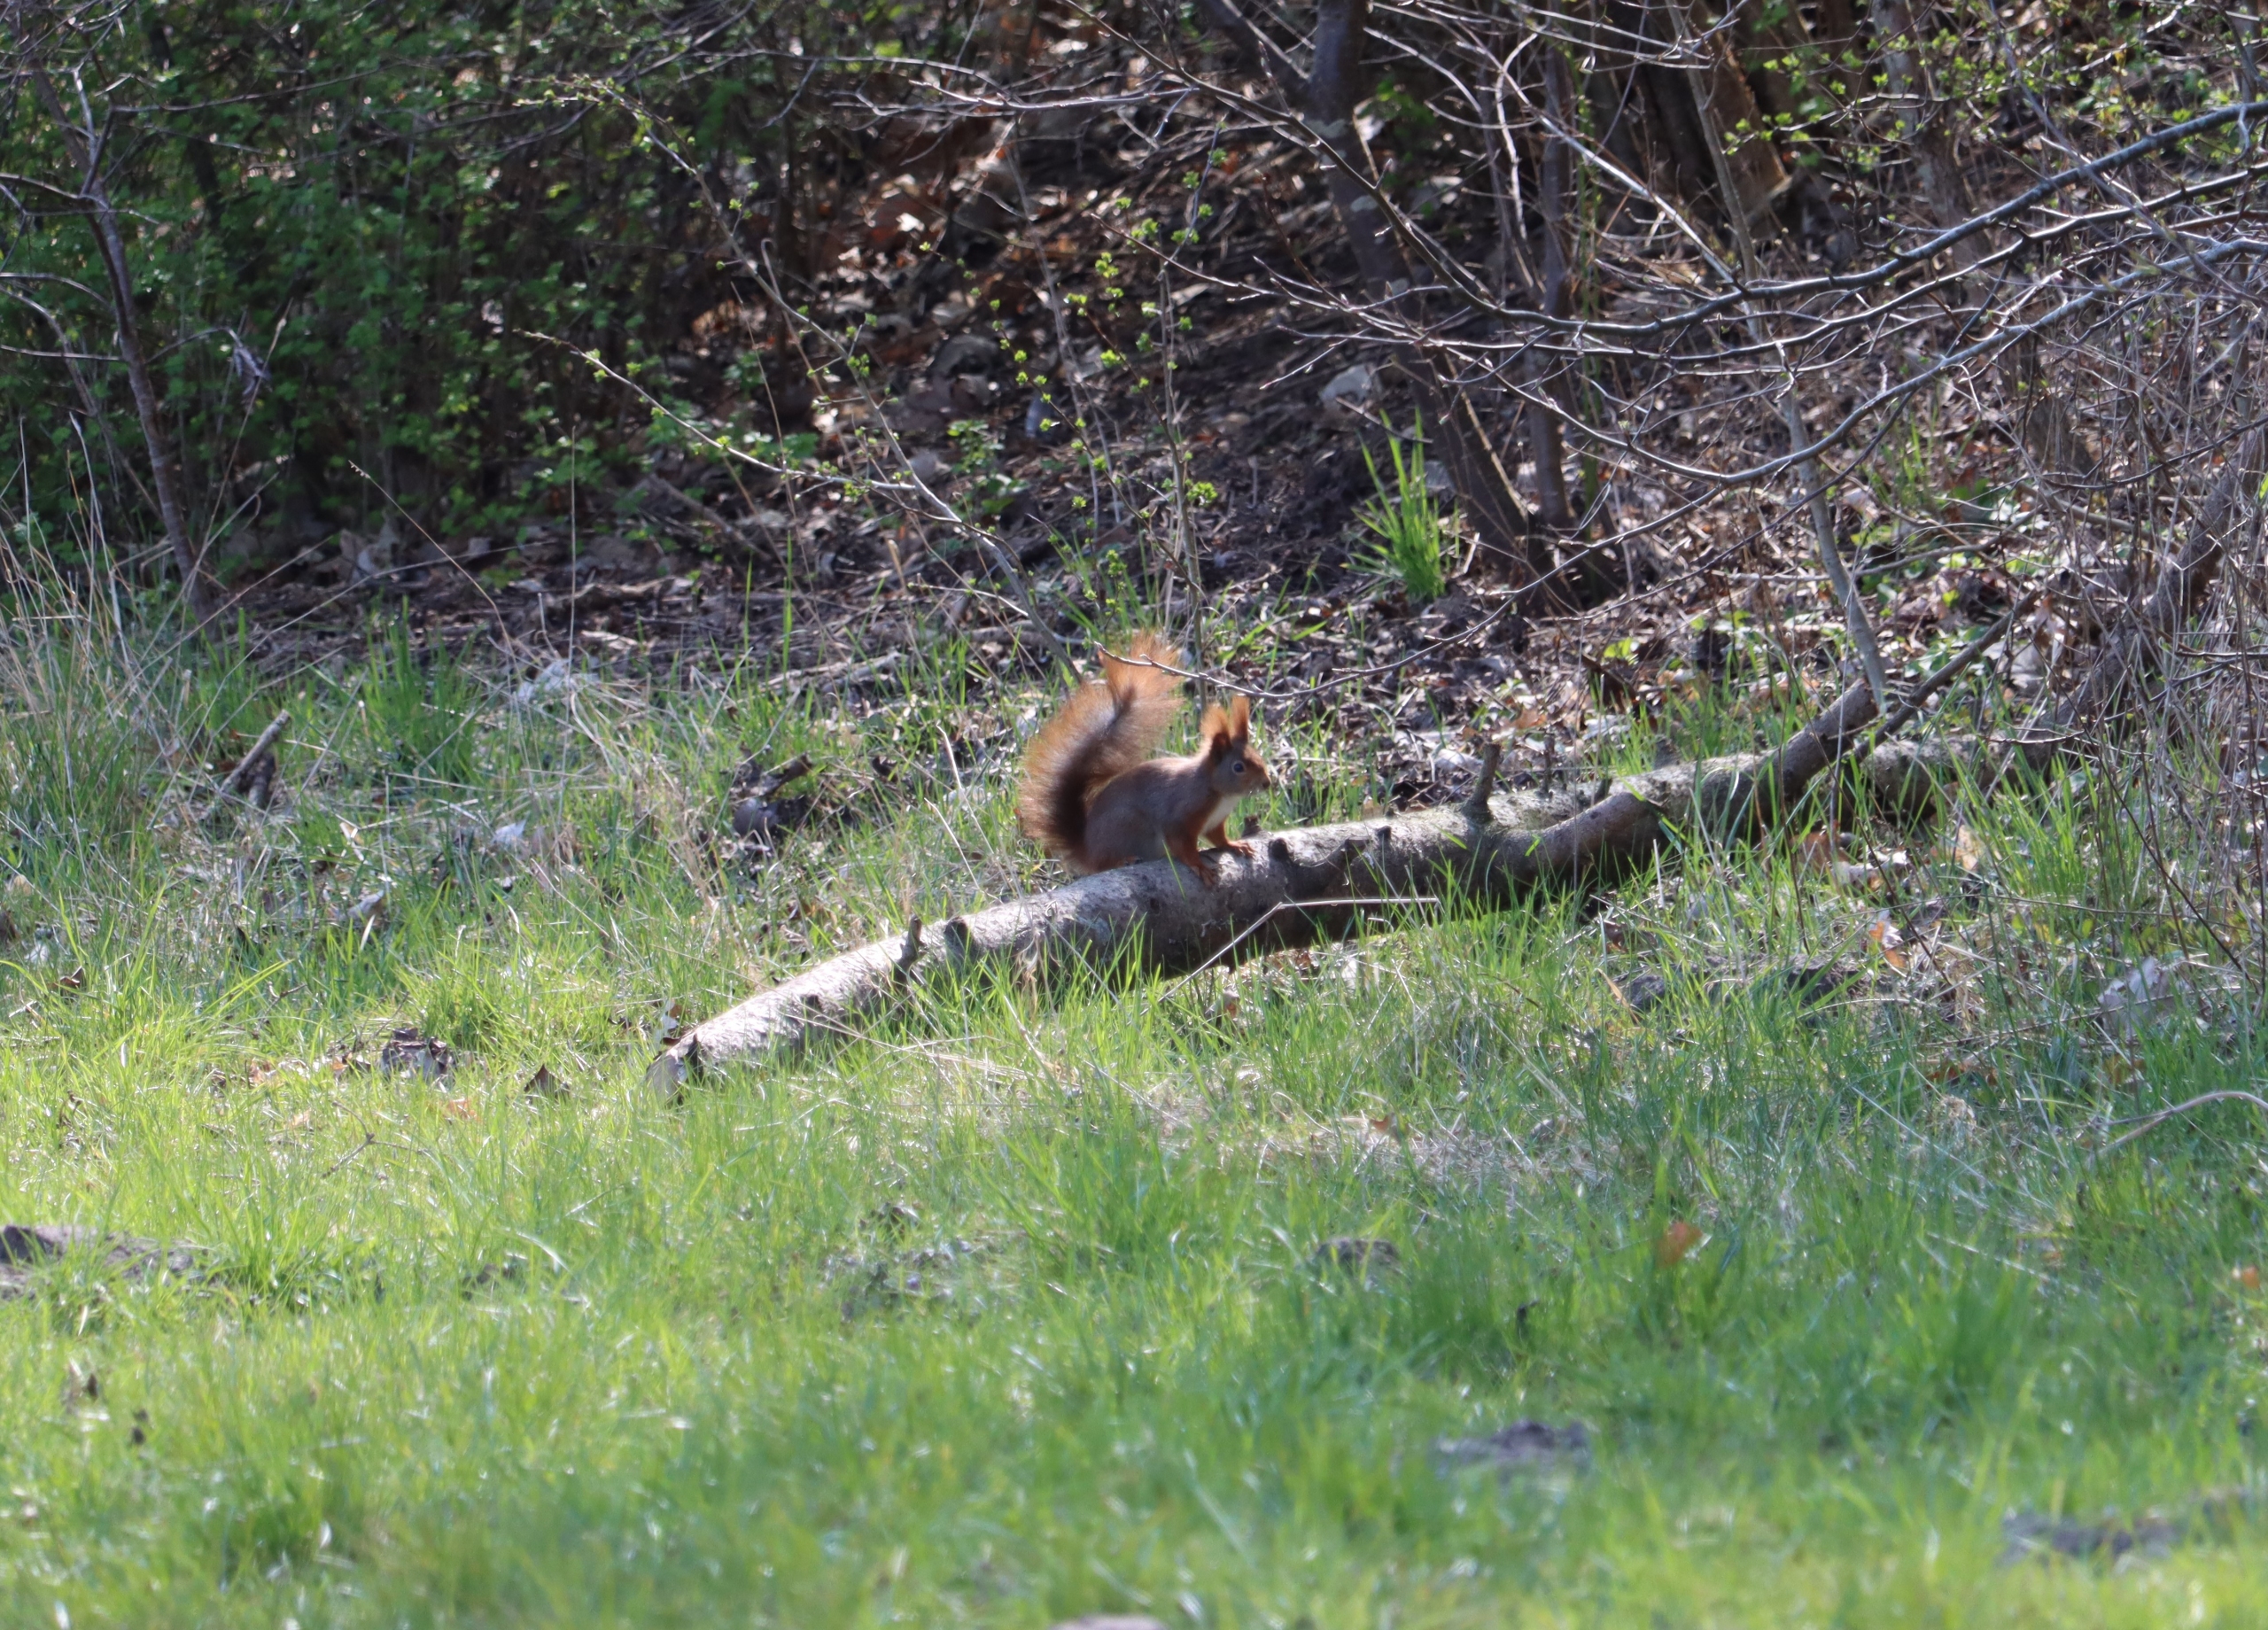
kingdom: Animalia
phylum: Chordata
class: Mammalia
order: Rodentia
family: Sciuridae
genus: Sciurus
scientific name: Sciurus vulgaris
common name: Egern
